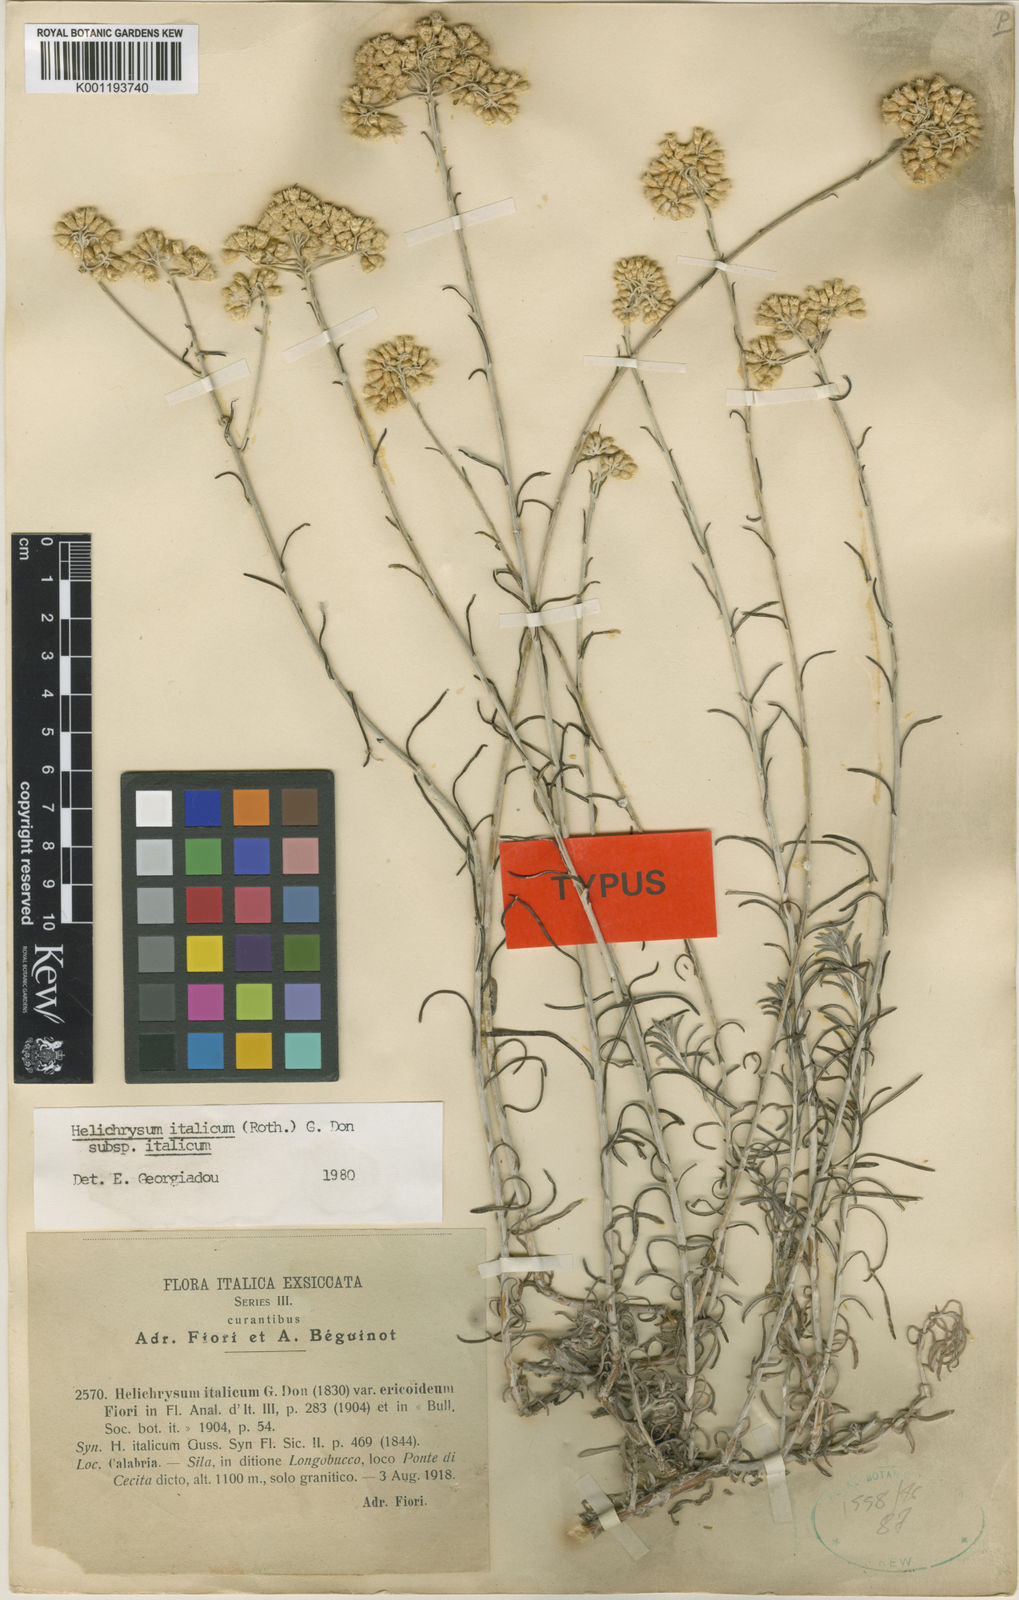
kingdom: Plantae
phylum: Tracheophyta
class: Magnoliopsida
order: Asterales
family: Asteraceae
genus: Helichrysum
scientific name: Helichrysum italicum
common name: Curryplant
